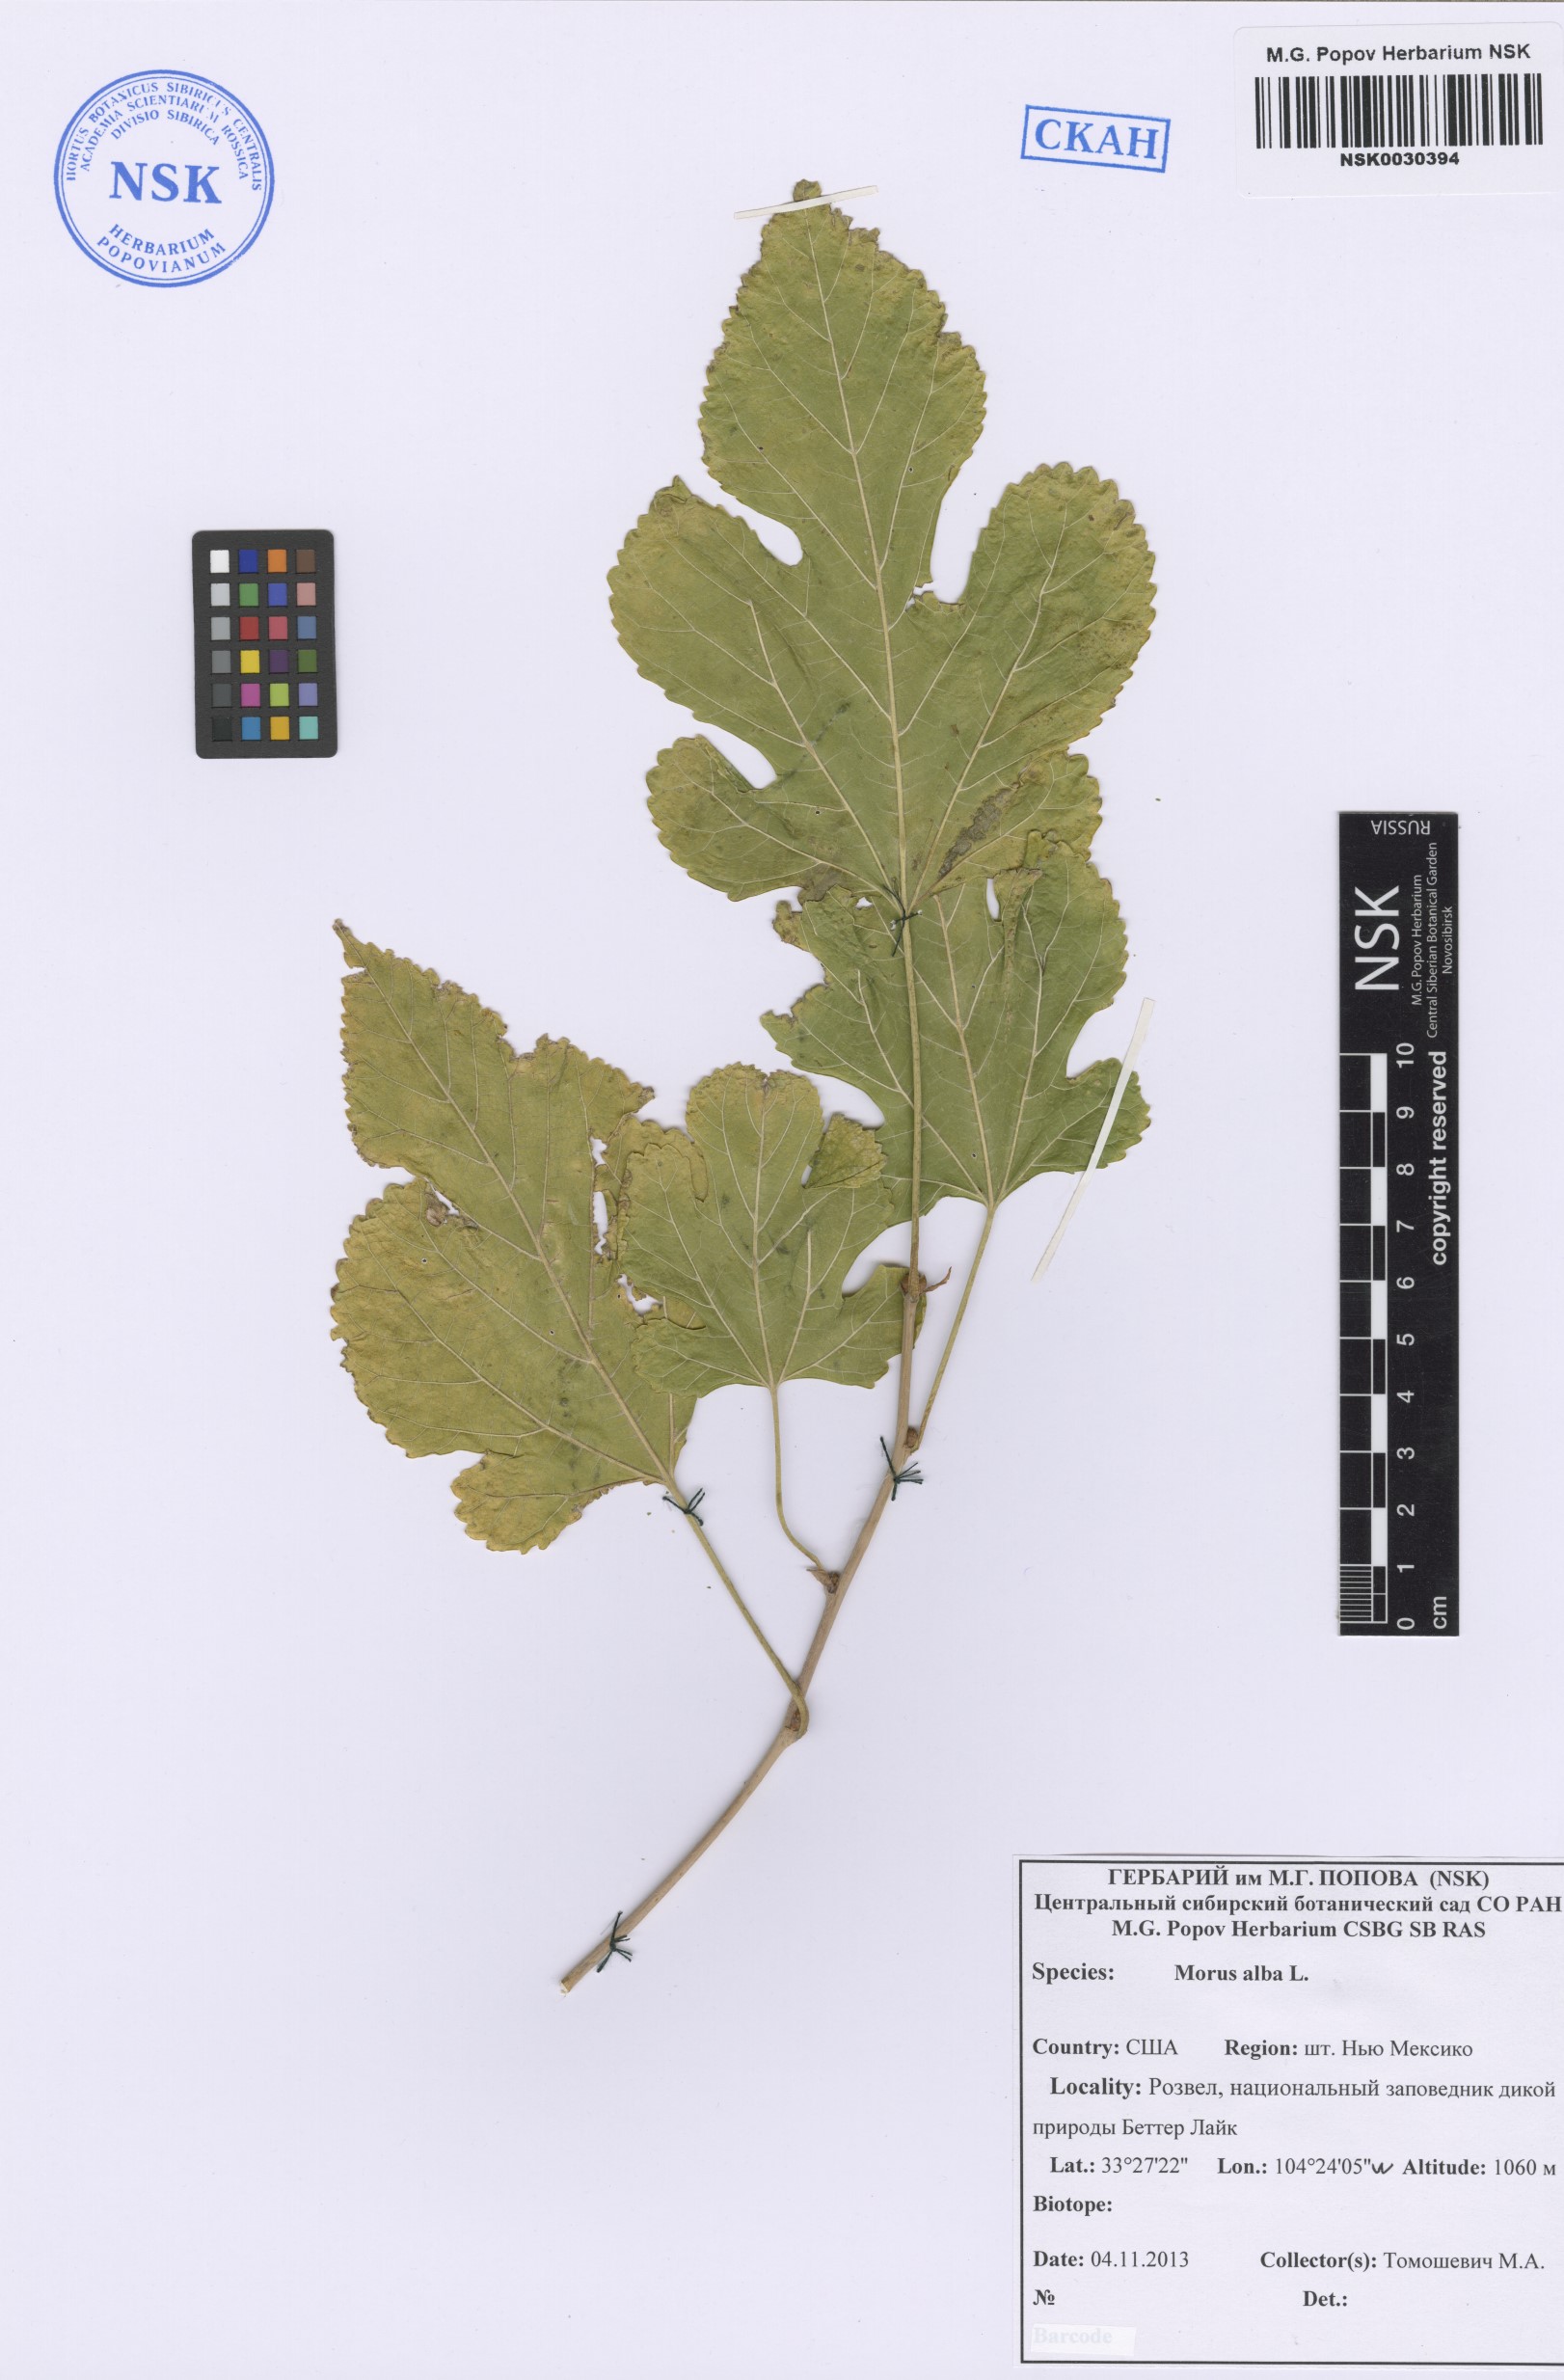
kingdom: Plantae
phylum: Tracheophyta
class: Magnoliopsida
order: Rosales
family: Moraceae
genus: Morus
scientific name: Morus alba
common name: White mulberry
